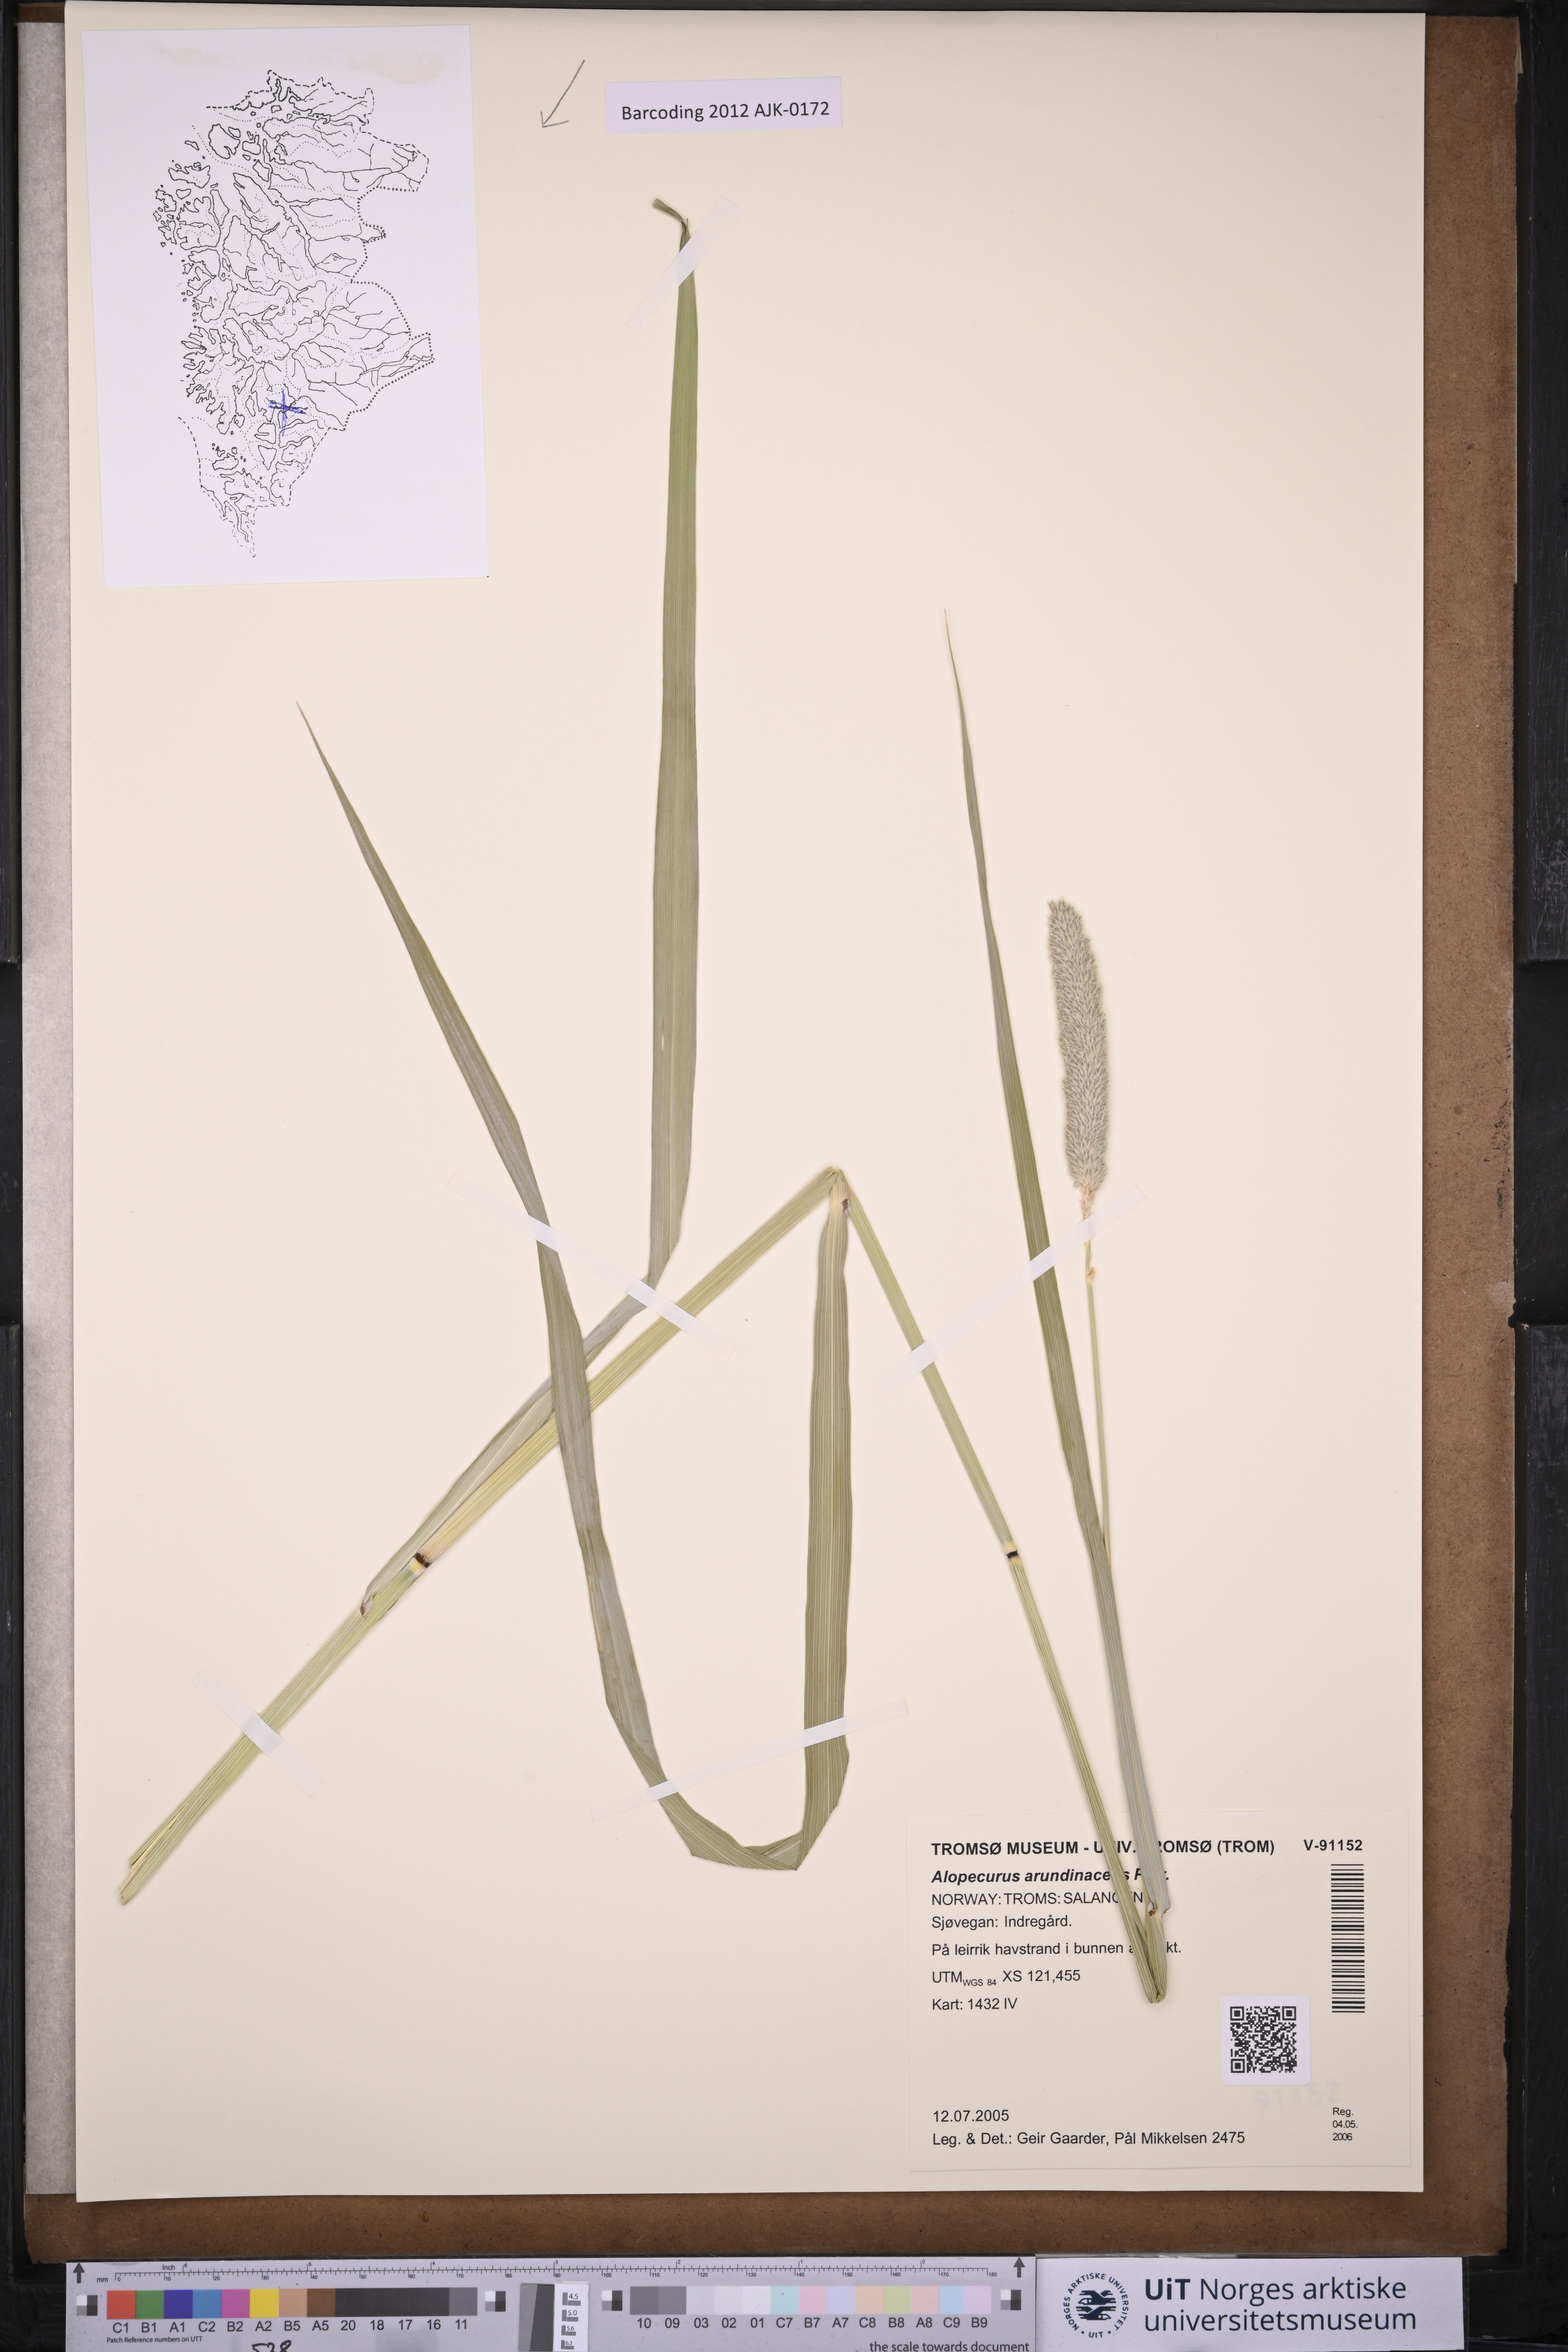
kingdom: Plantae
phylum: Tracheophyta
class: Liliopsida
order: Poales
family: Poaceae
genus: Alopecurus
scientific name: Alopecurus arundinaceus
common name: Creeping meadow foxtail
